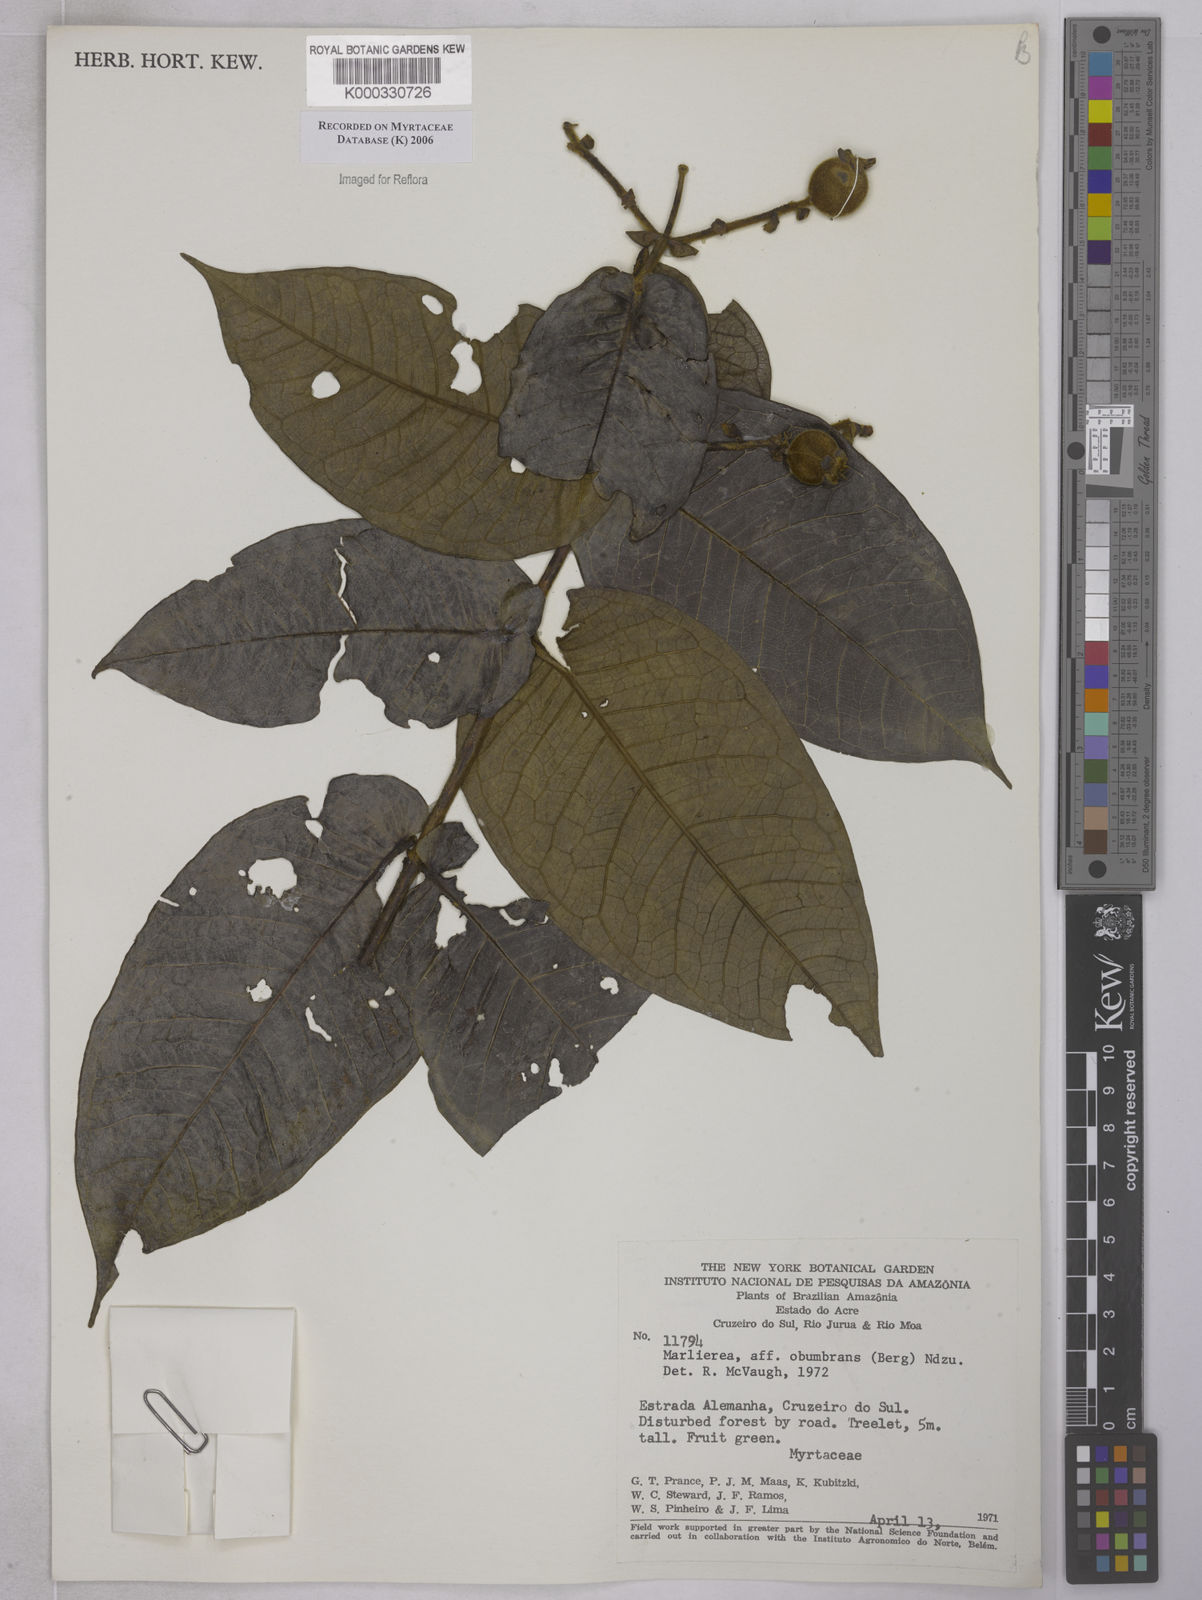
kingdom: Plantae
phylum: Tracheophyta
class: Magnoliopsida
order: Myrtales
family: Myrtaceae
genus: Myrcia
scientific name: Myrcia obumbrans
